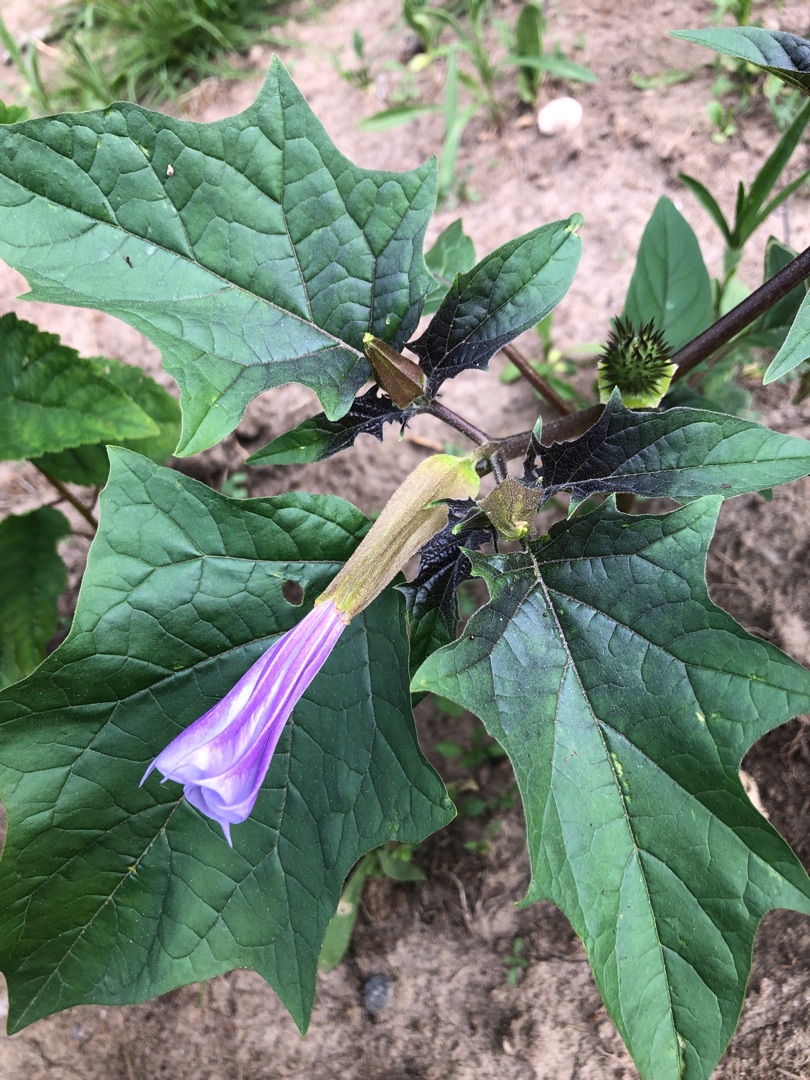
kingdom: Plantae
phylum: Tracheophyta
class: Magnoliopsida
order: Solanales
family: Solanaceae
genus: Datura
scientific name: Datura stramonium
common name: Blå pigæble
